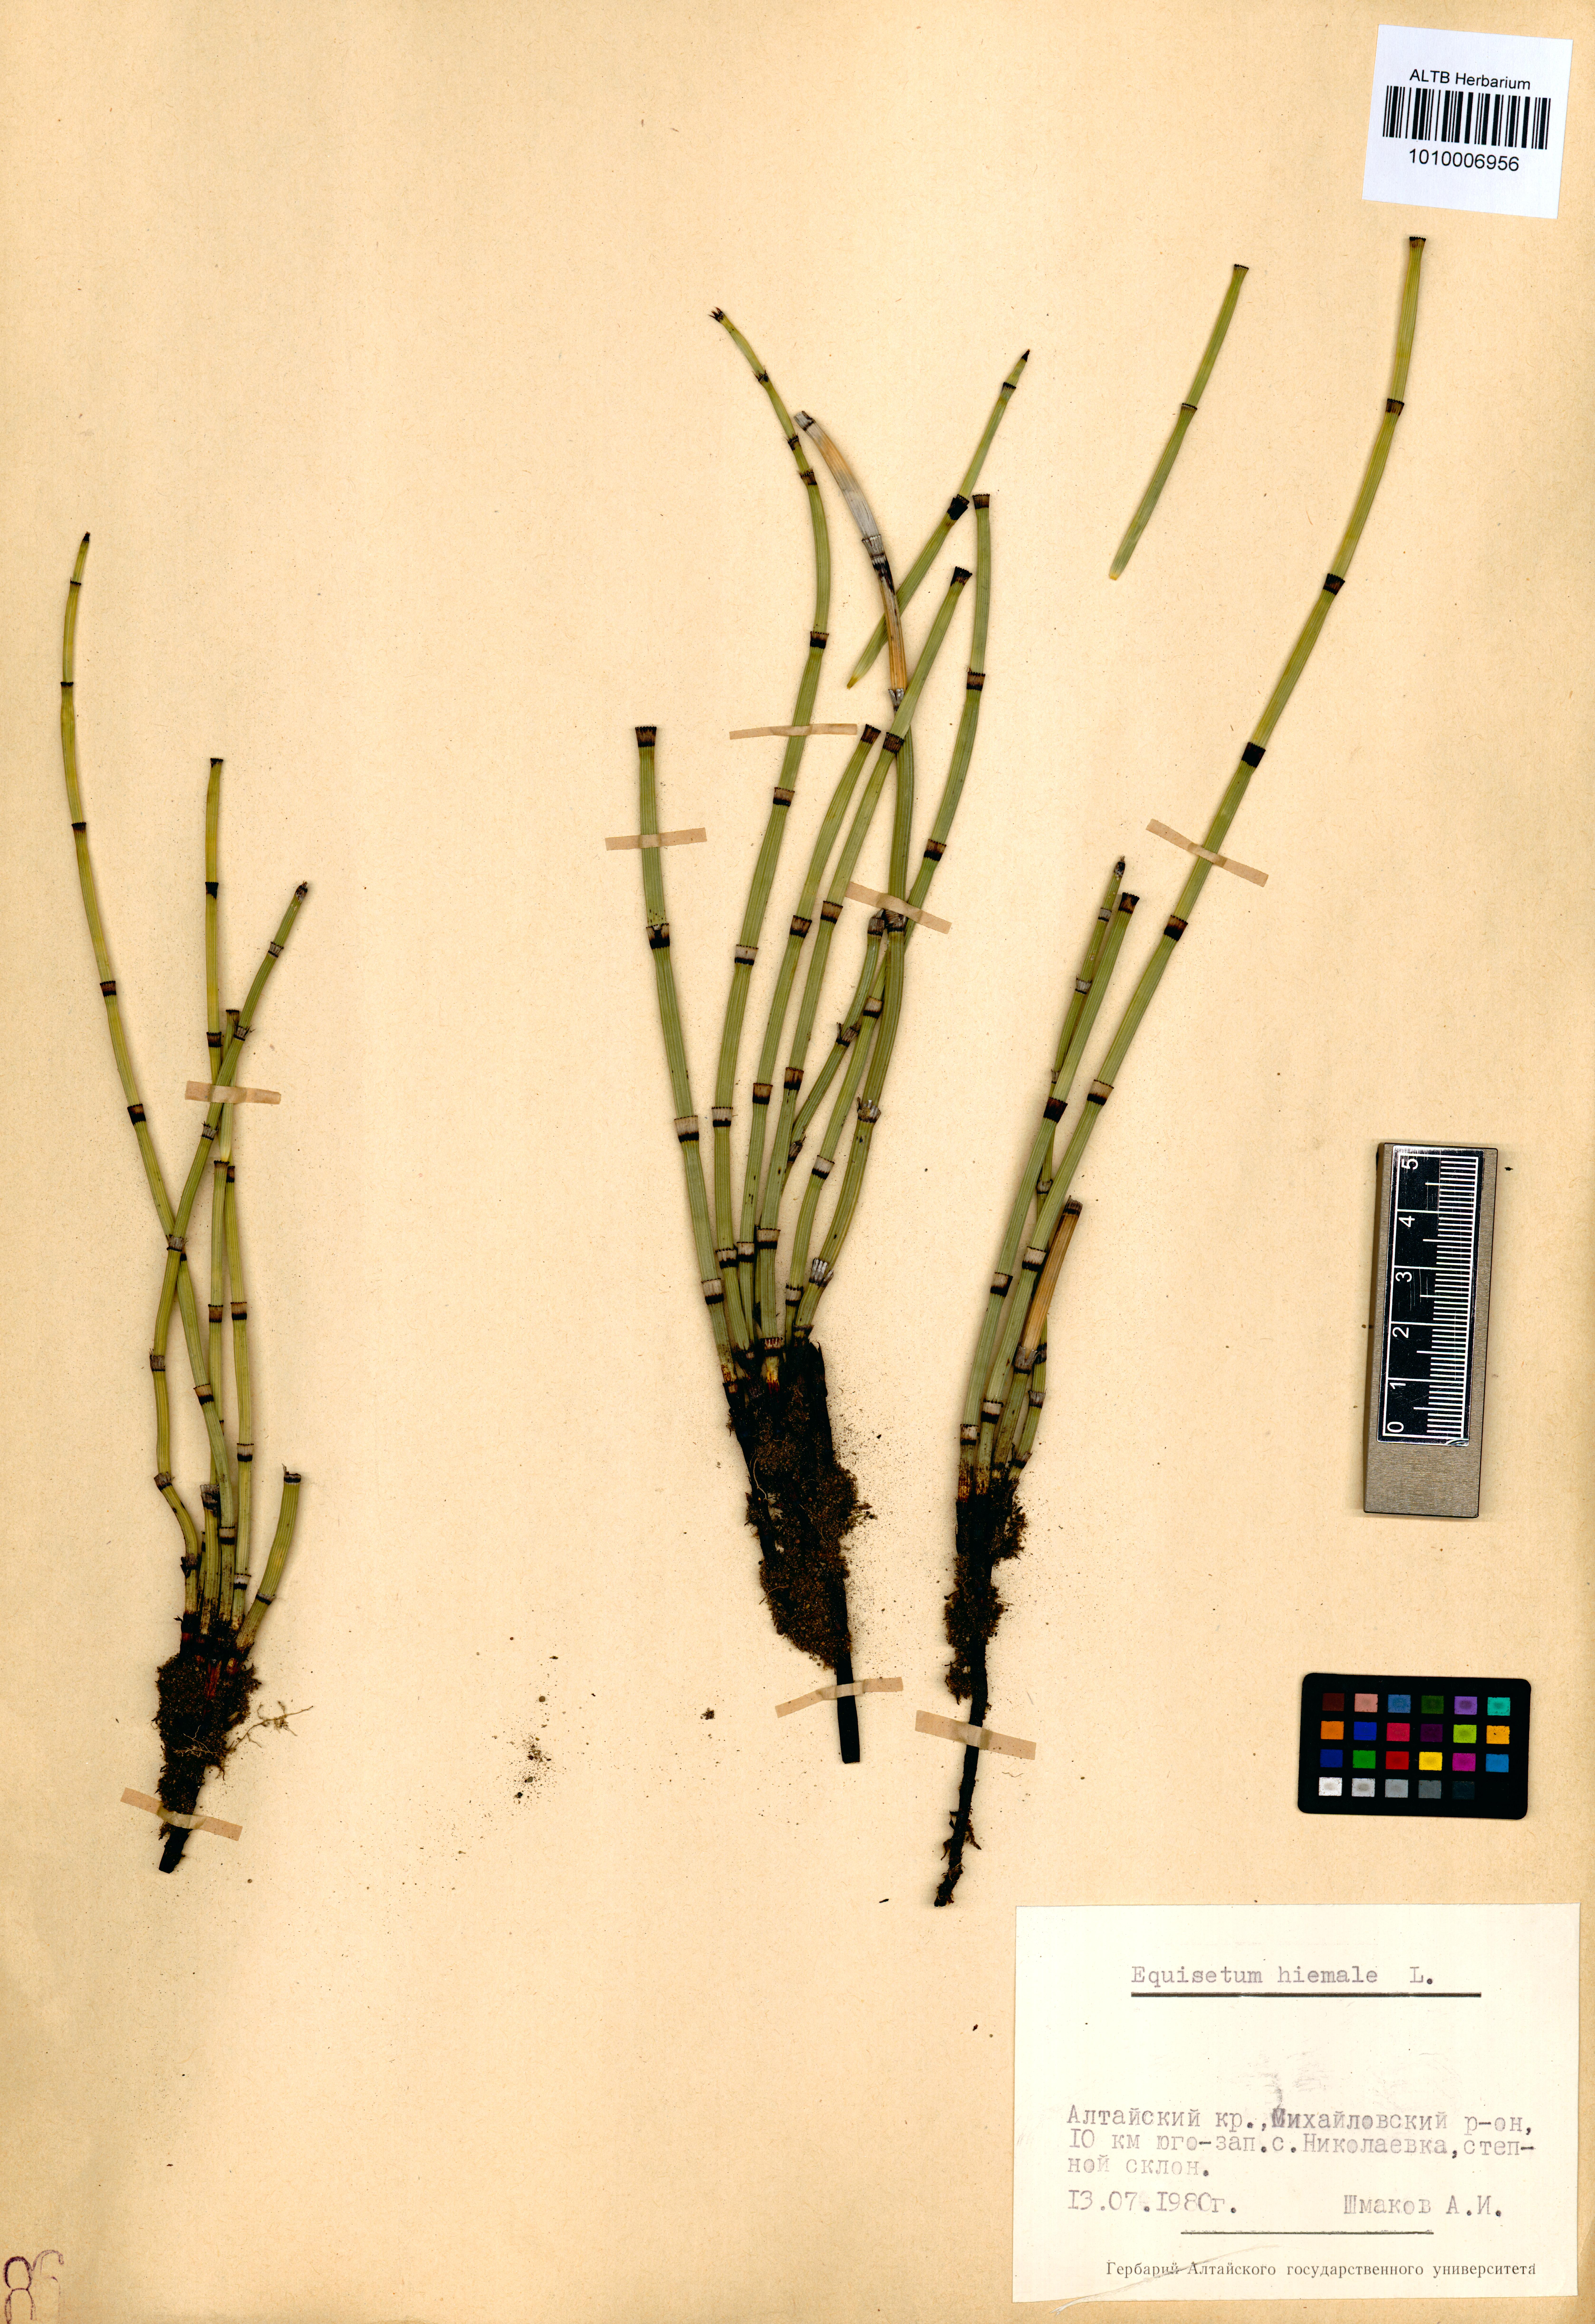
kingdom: Plantae
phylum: Tracheophyta
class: Polypodiopsida
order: Equisetales
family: Equisetaceae
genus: Equisetum
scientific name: Equisetum hyemale
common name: Rough horsetail
